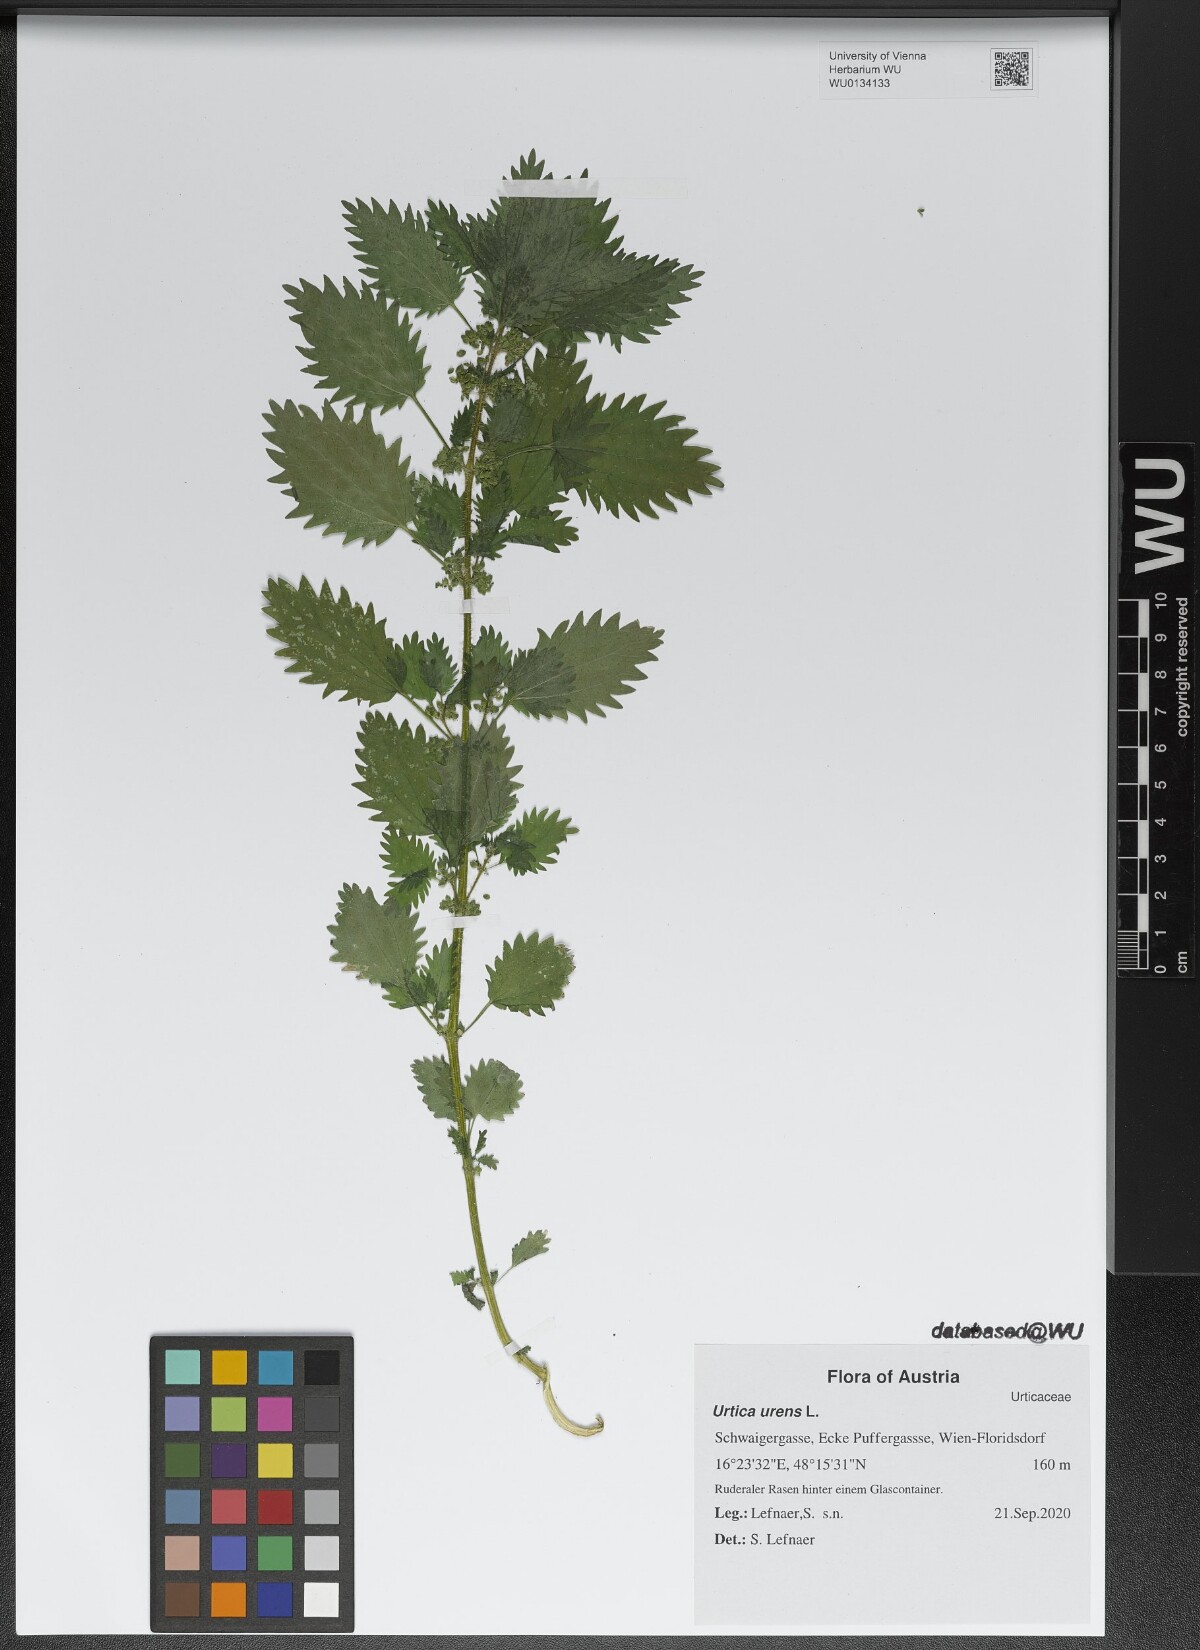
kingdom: Plantae
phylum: Tracheophyta
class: Magnoliopsida
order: Rosales
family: Urticaceae
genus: Urtica
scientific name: Urtica urens
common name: Dwarf nettle
